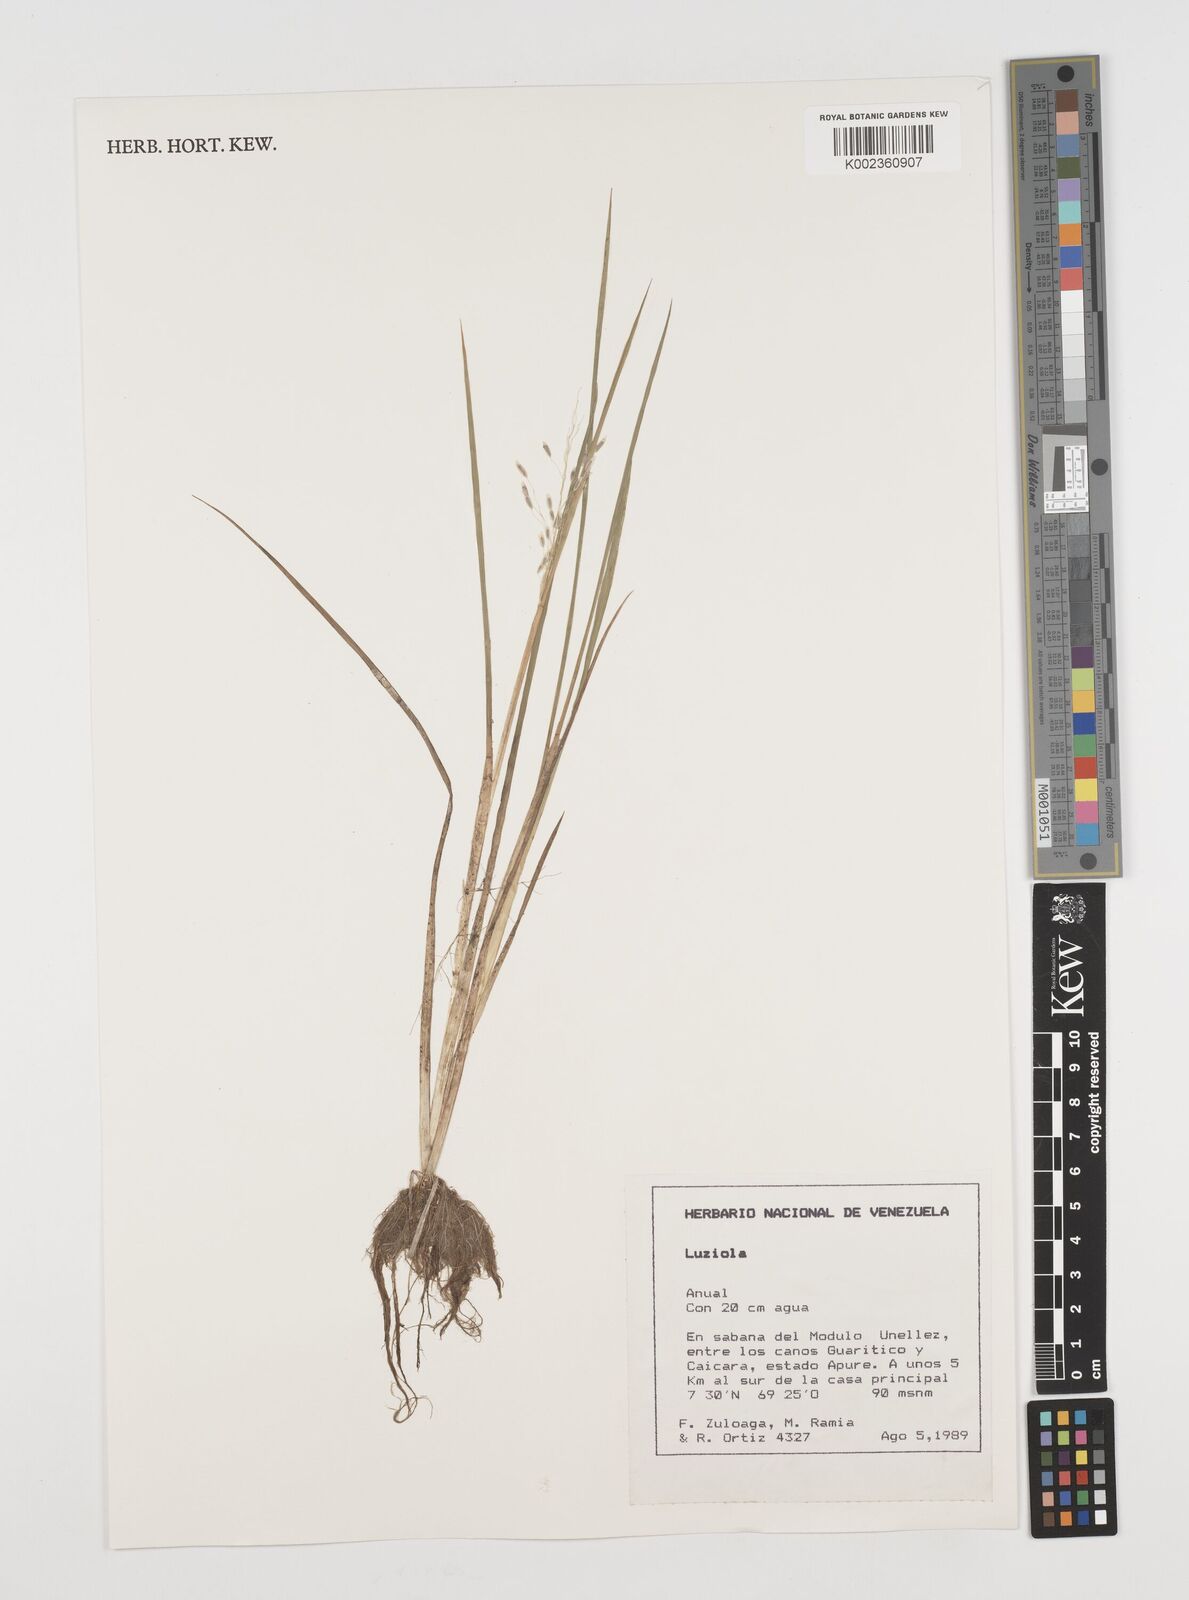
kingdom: Plantae
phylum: Tracheophyta
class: Liliopsida
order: Poales
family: Poaceae
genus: Luziola
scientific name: Luziola brasiliana
